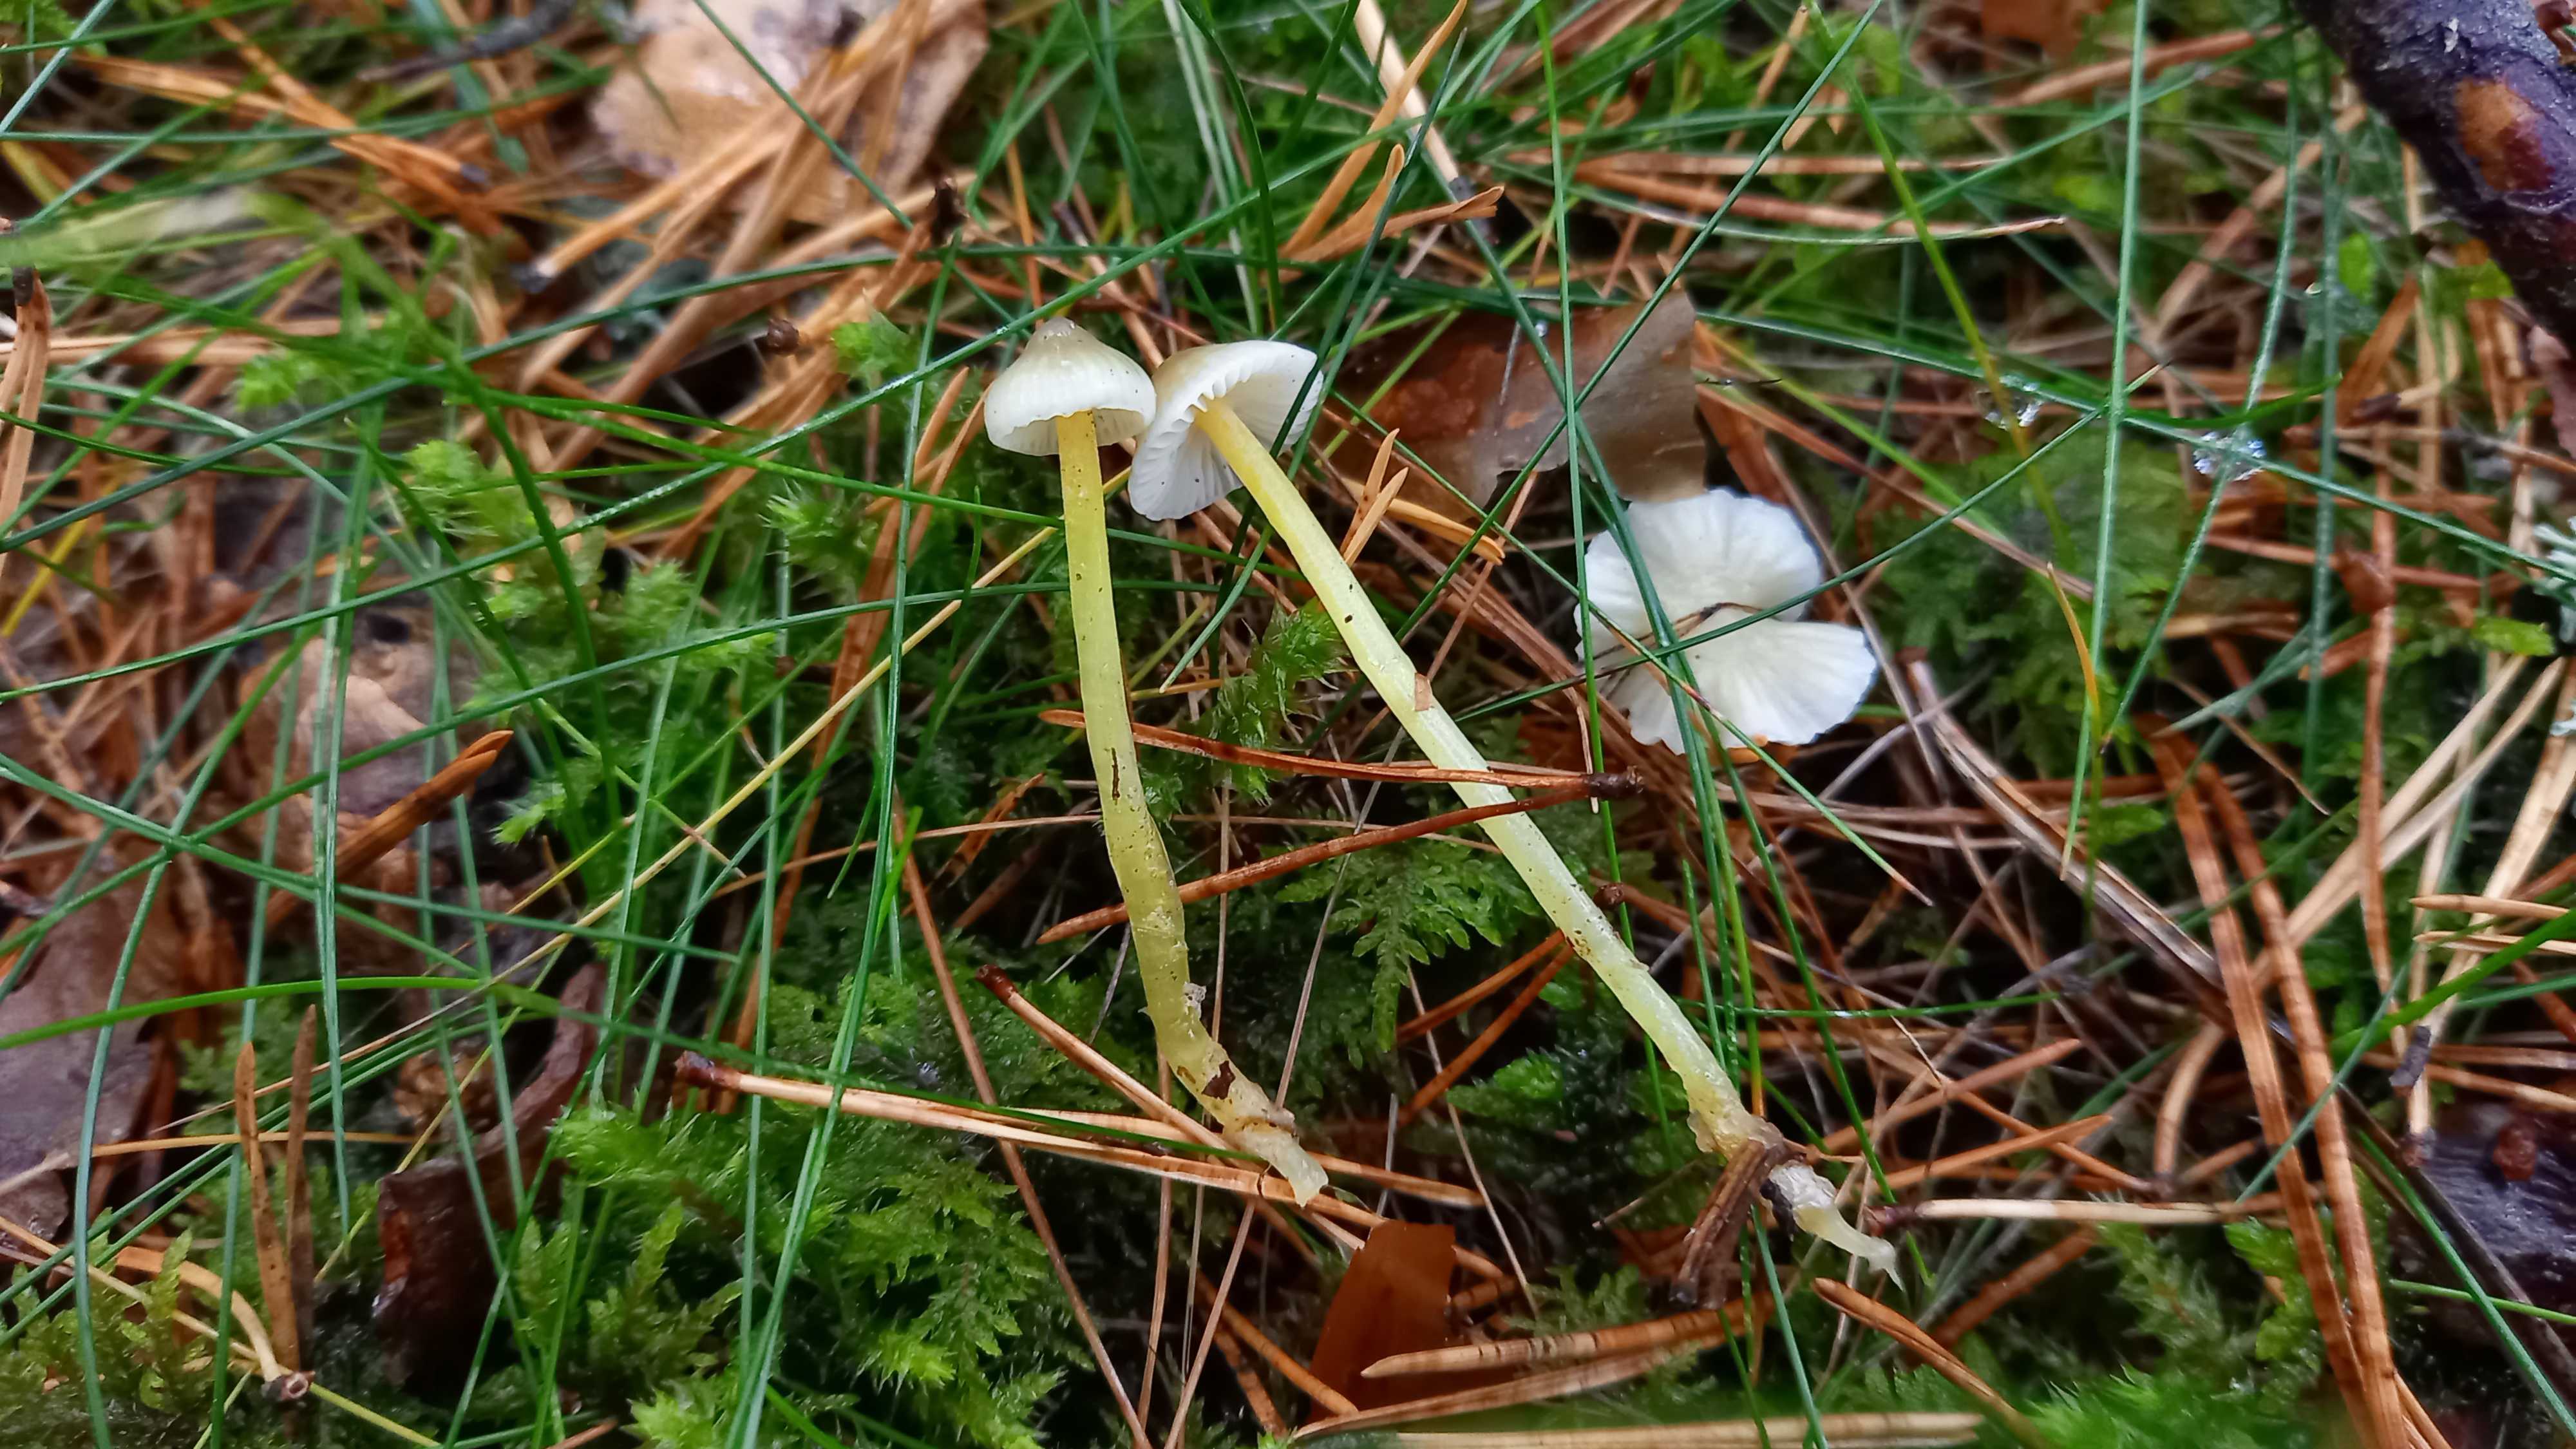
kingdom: Fungi
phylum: Basidiomycota
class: Agaricomycetes
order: Agaricales
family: Mycenaceae
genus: Mycena
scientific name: Mycena epipterygia
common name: gulstokket huesvamp
